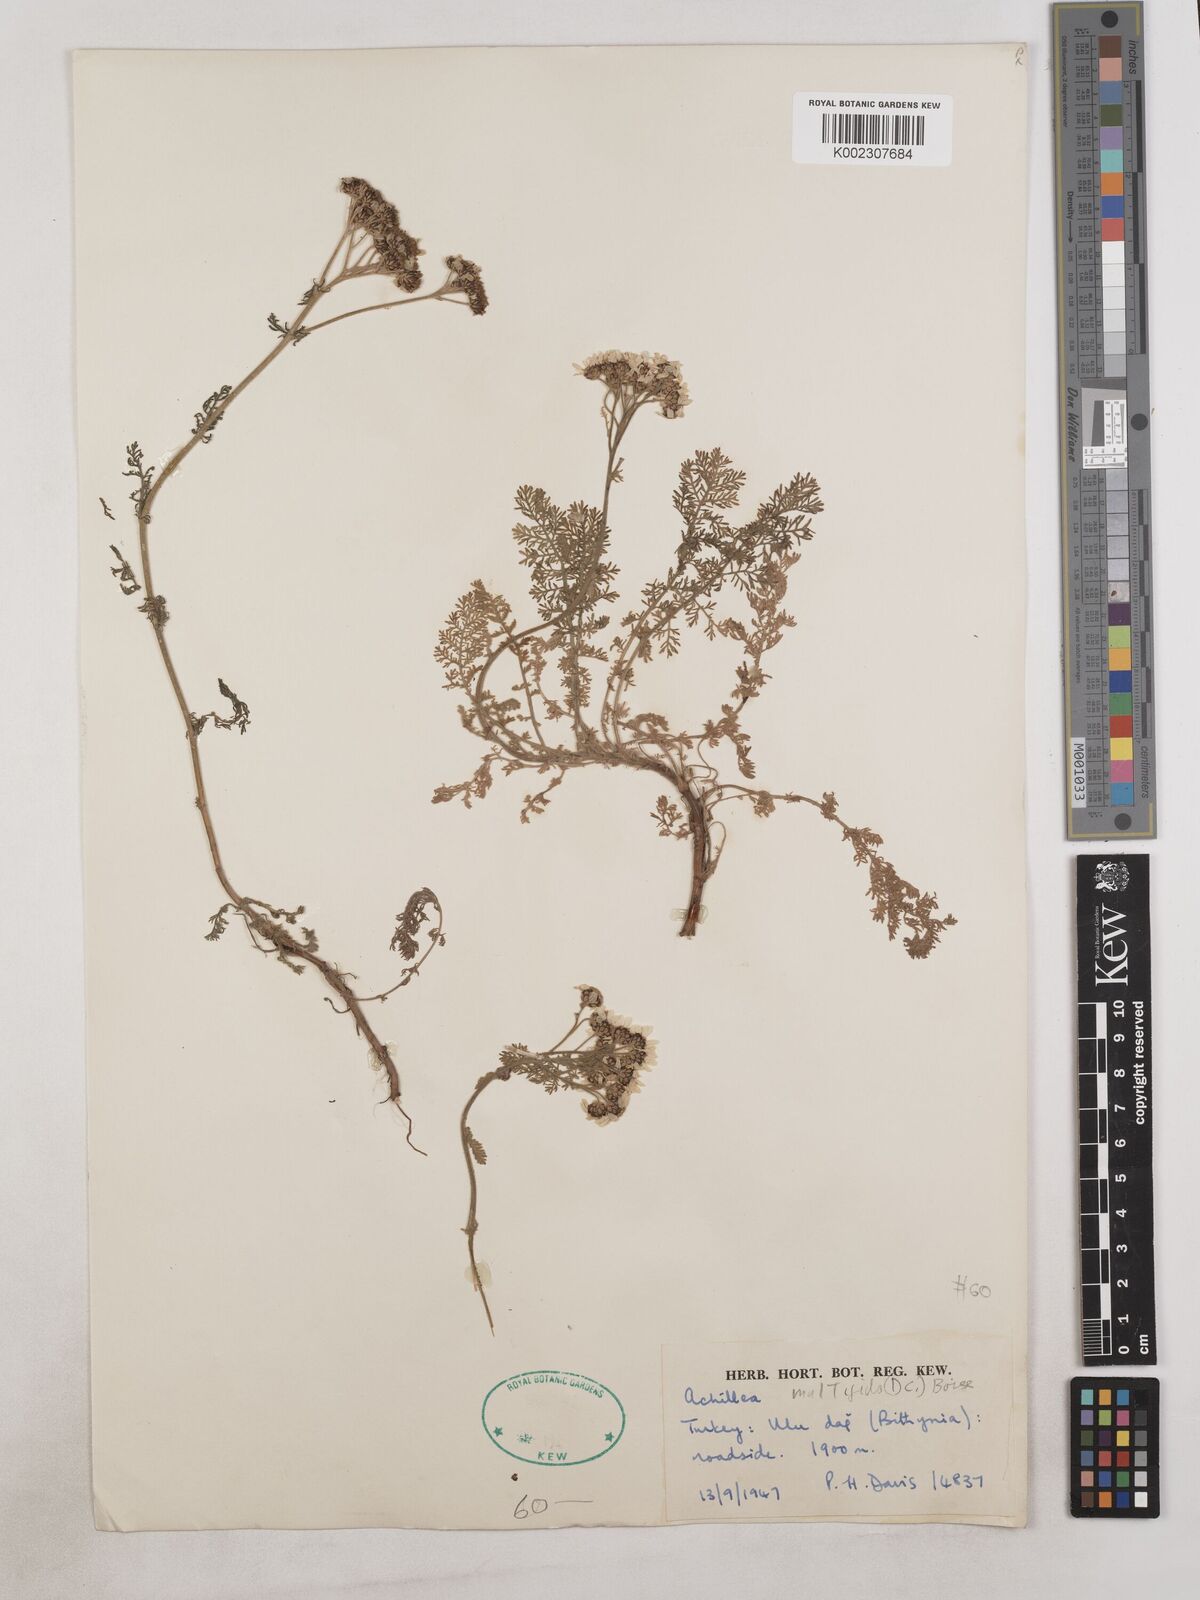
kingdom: Plantae
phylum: Tracheophyta
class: Magnoliopsida
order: Asterales
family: Asteraceae
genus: Achillea
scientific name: Achillea multifida
